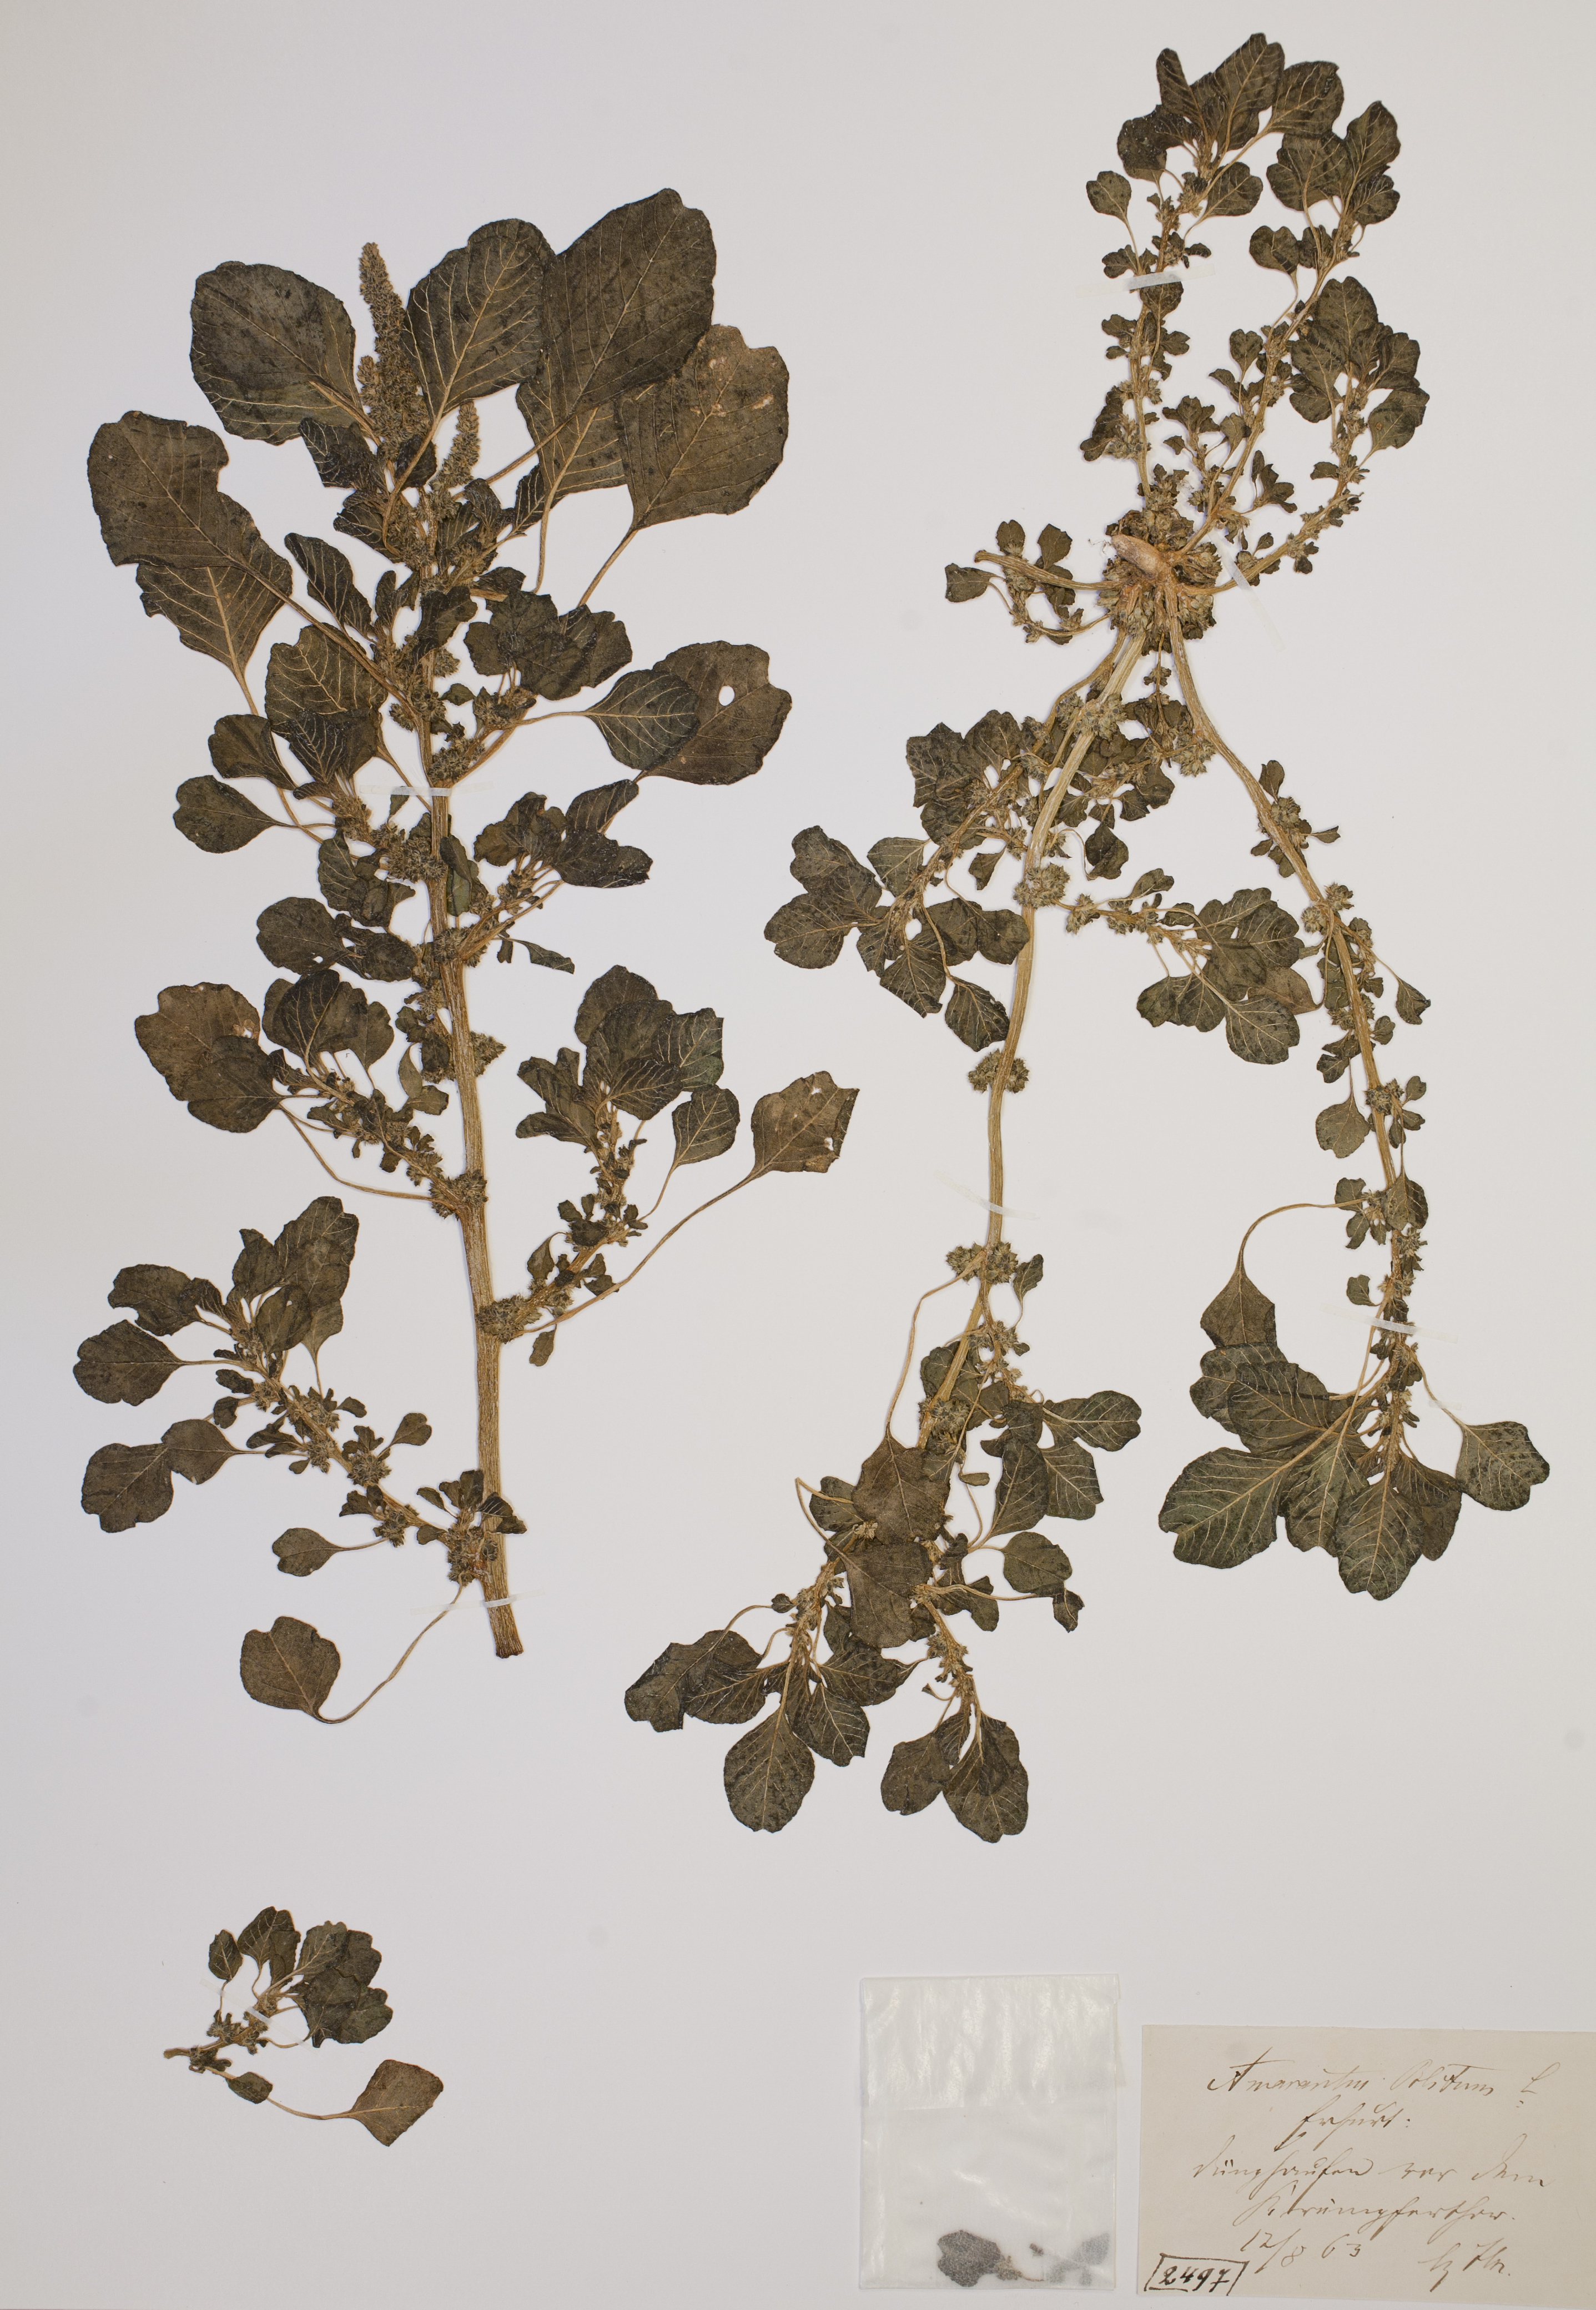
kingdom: Plantae
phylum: Tracheophyta
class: Magnoliopsida
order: Caryophyllales
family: Amaranthaceae
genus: Amaranthus
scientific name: Amaranthus blitum
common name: Purple amaranth
